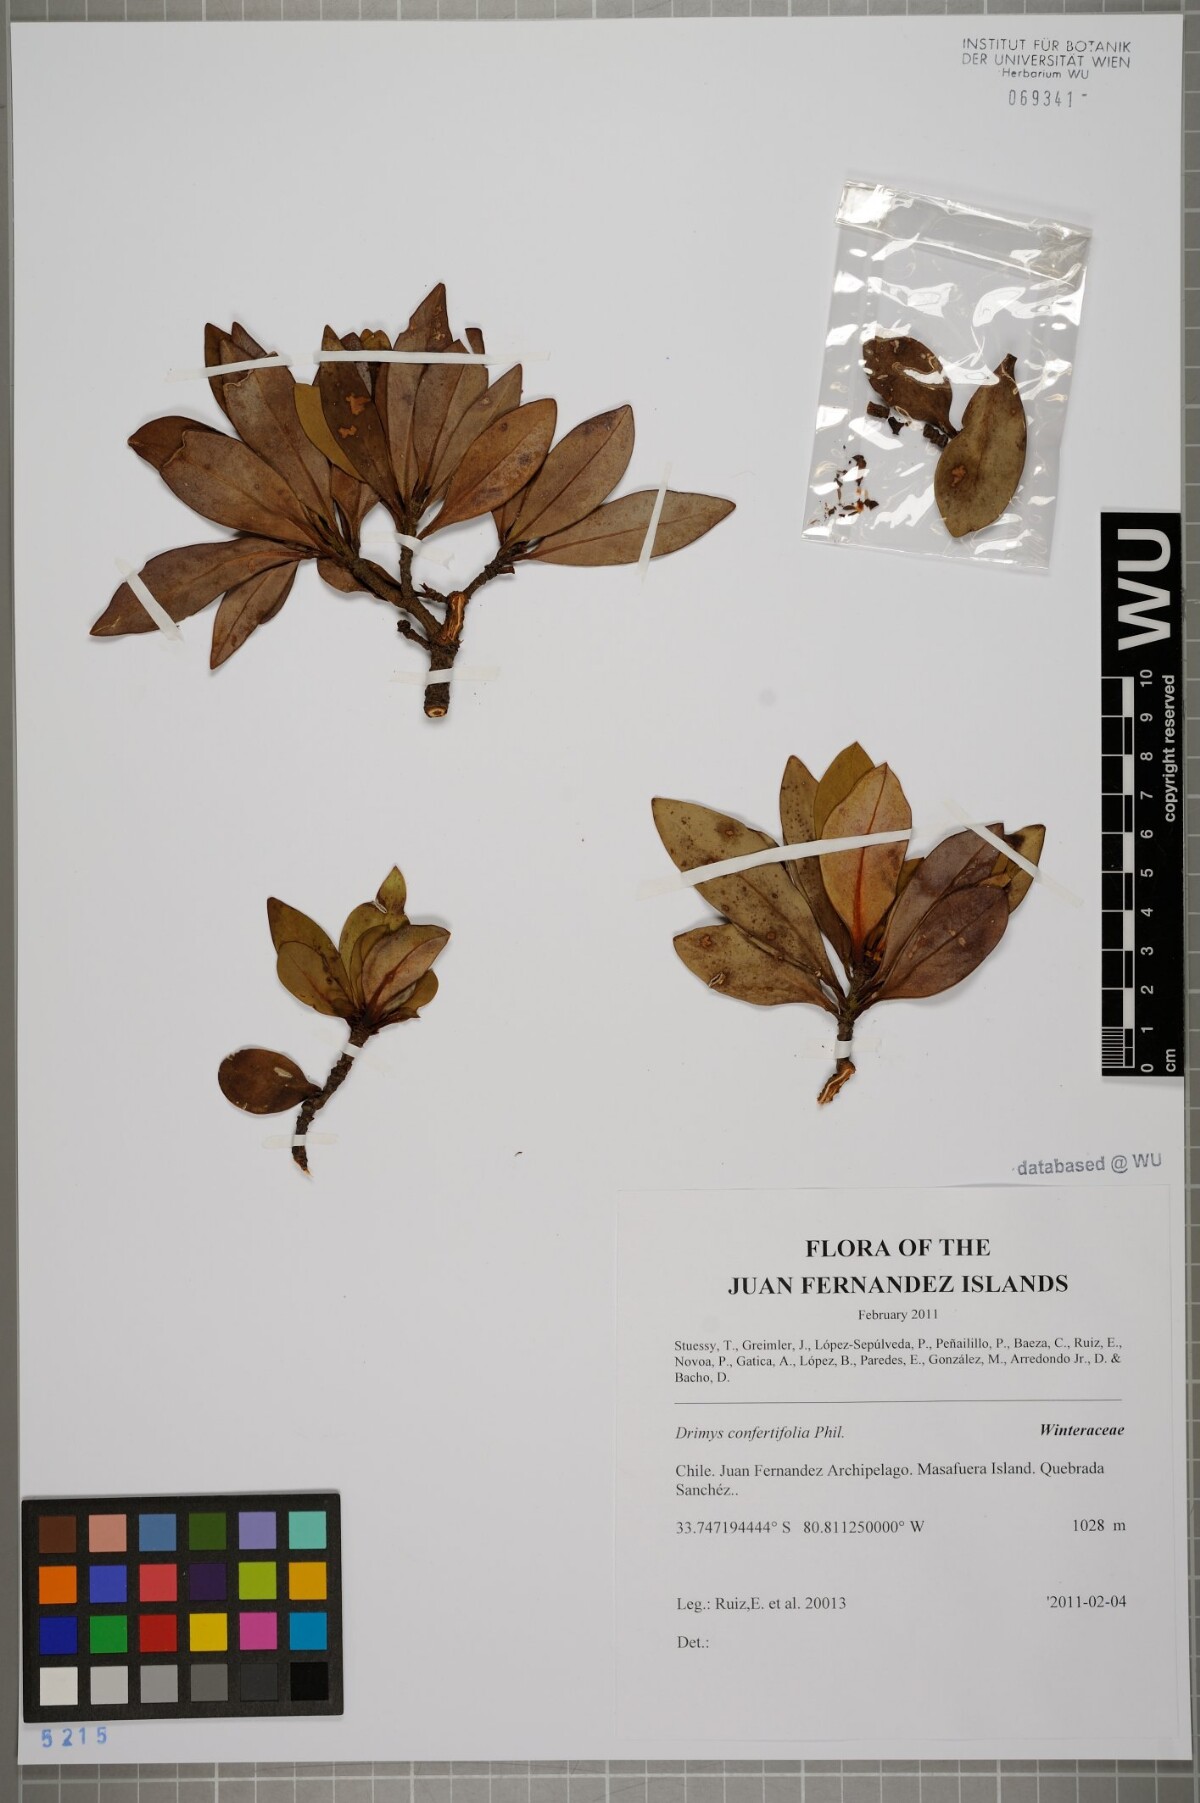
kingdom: Plantae
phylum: Tracheophyta
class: Magnoliopsida
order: Canellales
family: Winteraceae
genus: Drimys
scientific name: Drimys confertiflora
